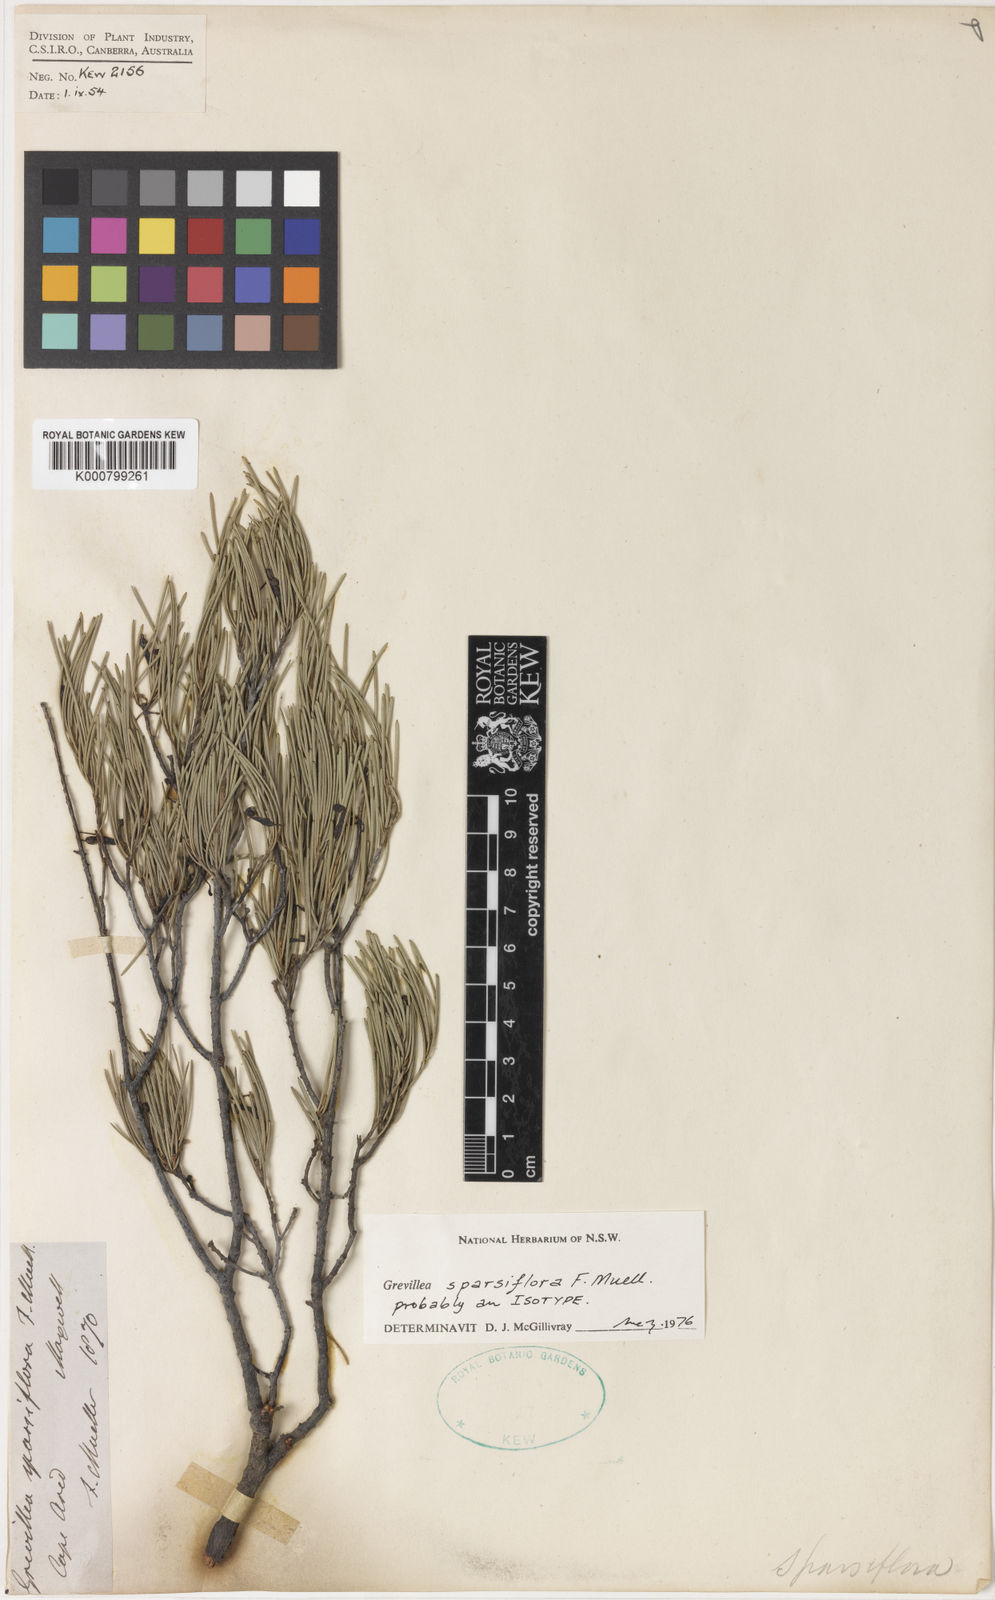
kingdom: Plantae
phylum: Tracheophyta
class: Magnoliopsida
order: Proteales
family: Proteaceae
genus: Grevillea
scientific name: Grevillea sparsiflora
